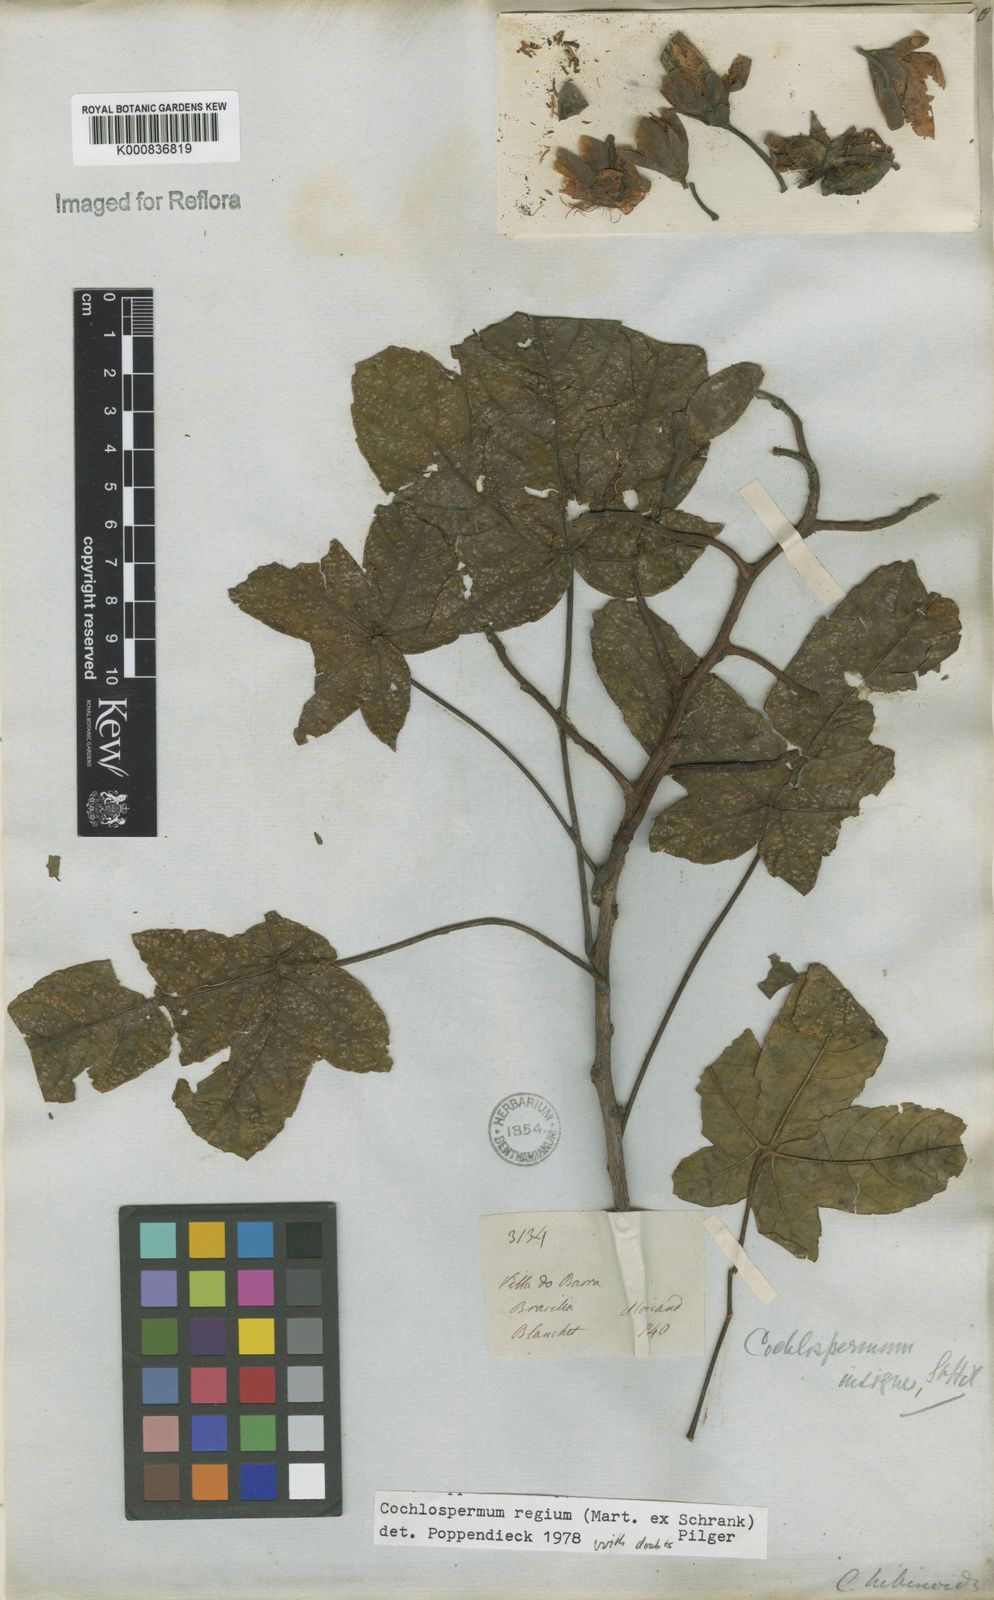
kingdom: Plantae
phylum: Tracheophyta
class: Magnoliopsida
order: Malvales
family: Cochlospermaceae
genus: Cochlospermum
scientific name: Cochlospermum regium
